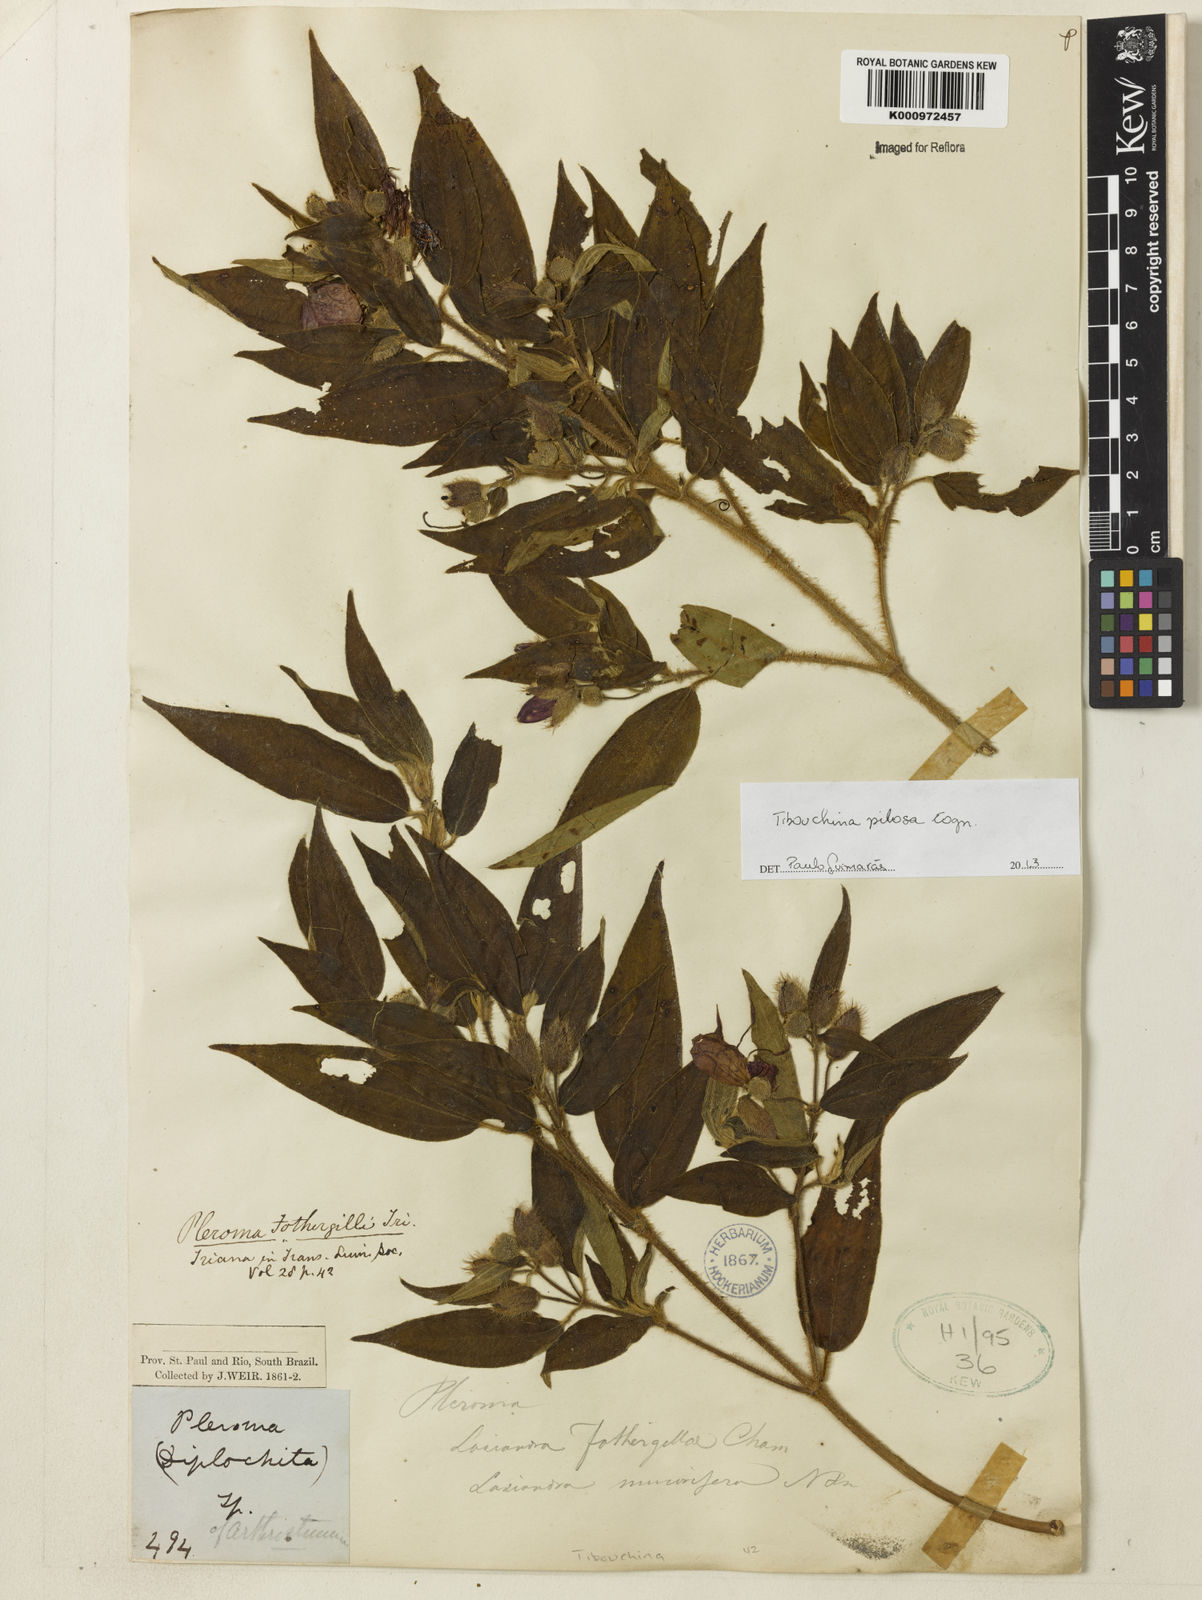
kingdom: Plantae
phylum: Tracheophyta
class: Magnoliopsida
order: Myrtales
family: Melastomataceae
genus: Pleroma
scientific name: Pleroma pilosum
